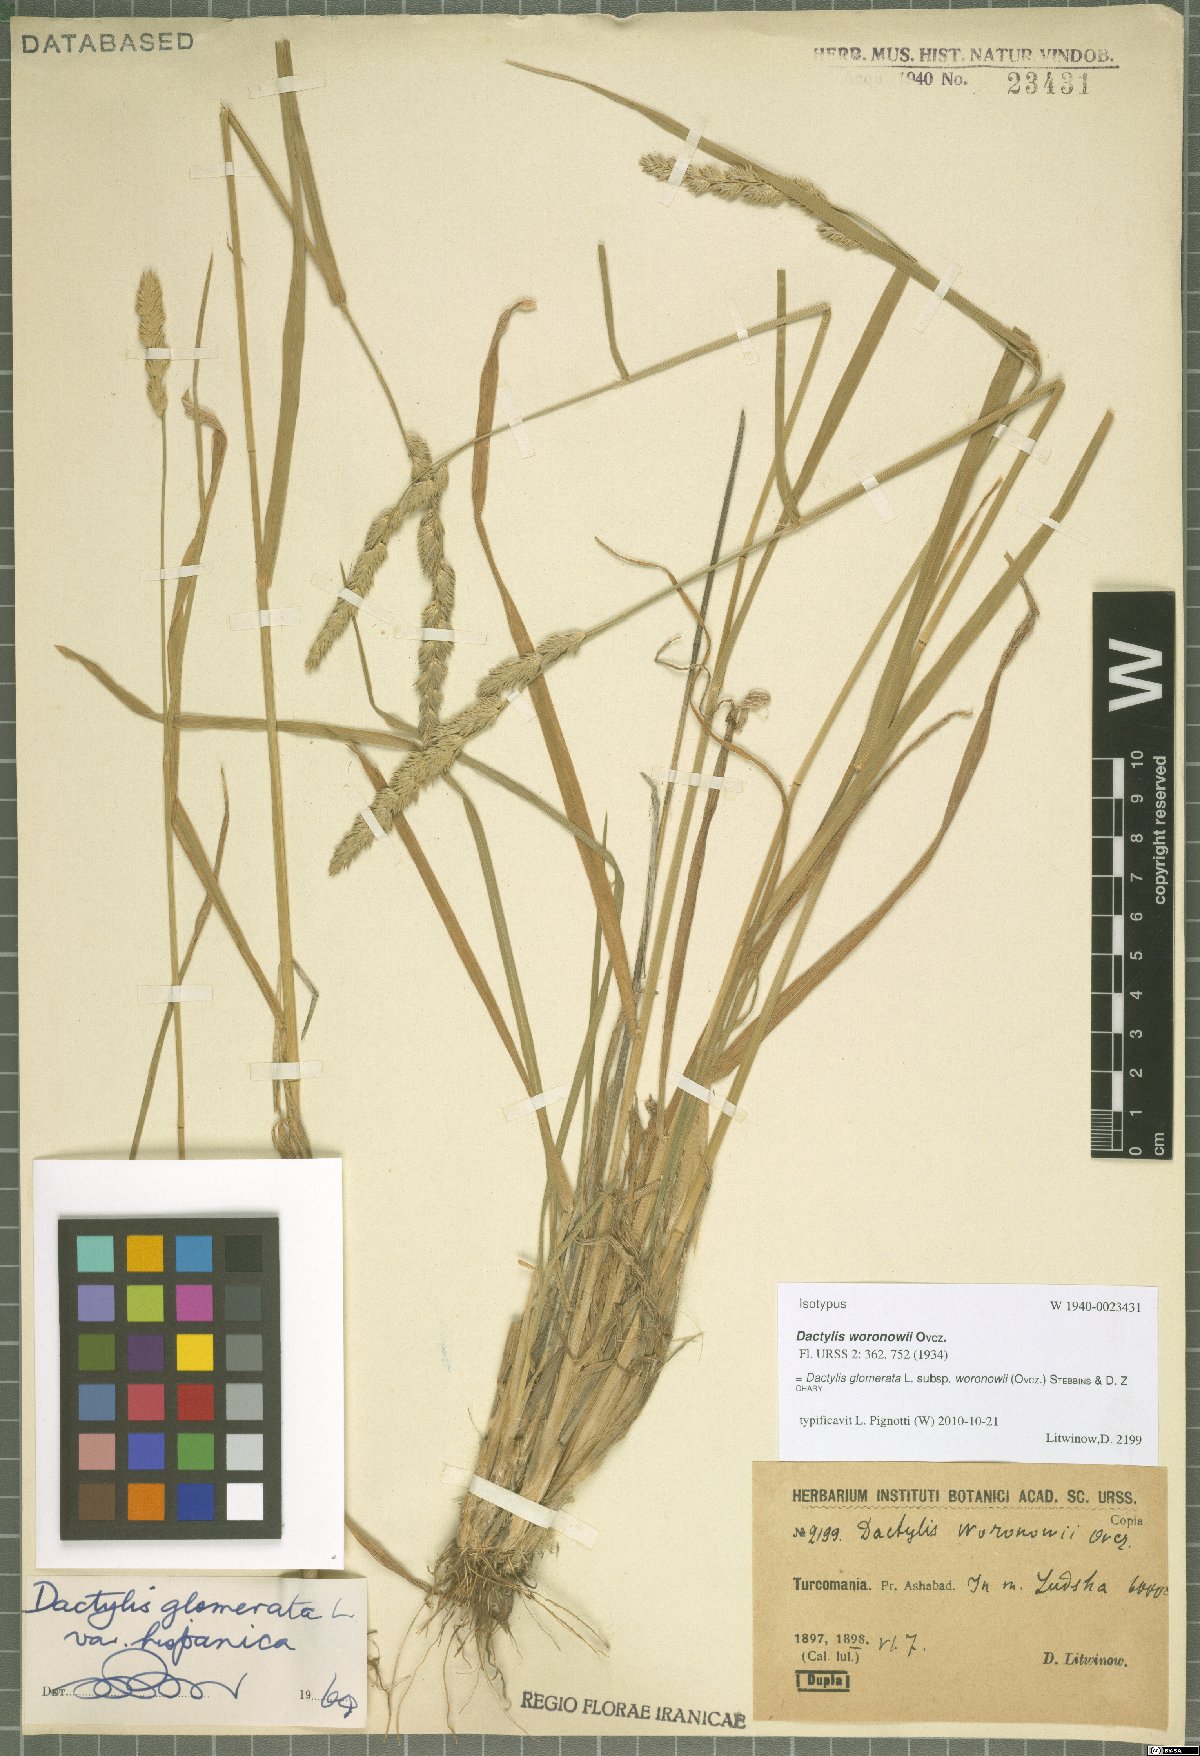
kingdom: Plantae
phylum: Tracheophyta
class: Liliopsida
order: Poales
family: Poaceae
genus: Dactylis
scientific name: Dactylis glomerata
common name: Orchardgrass
